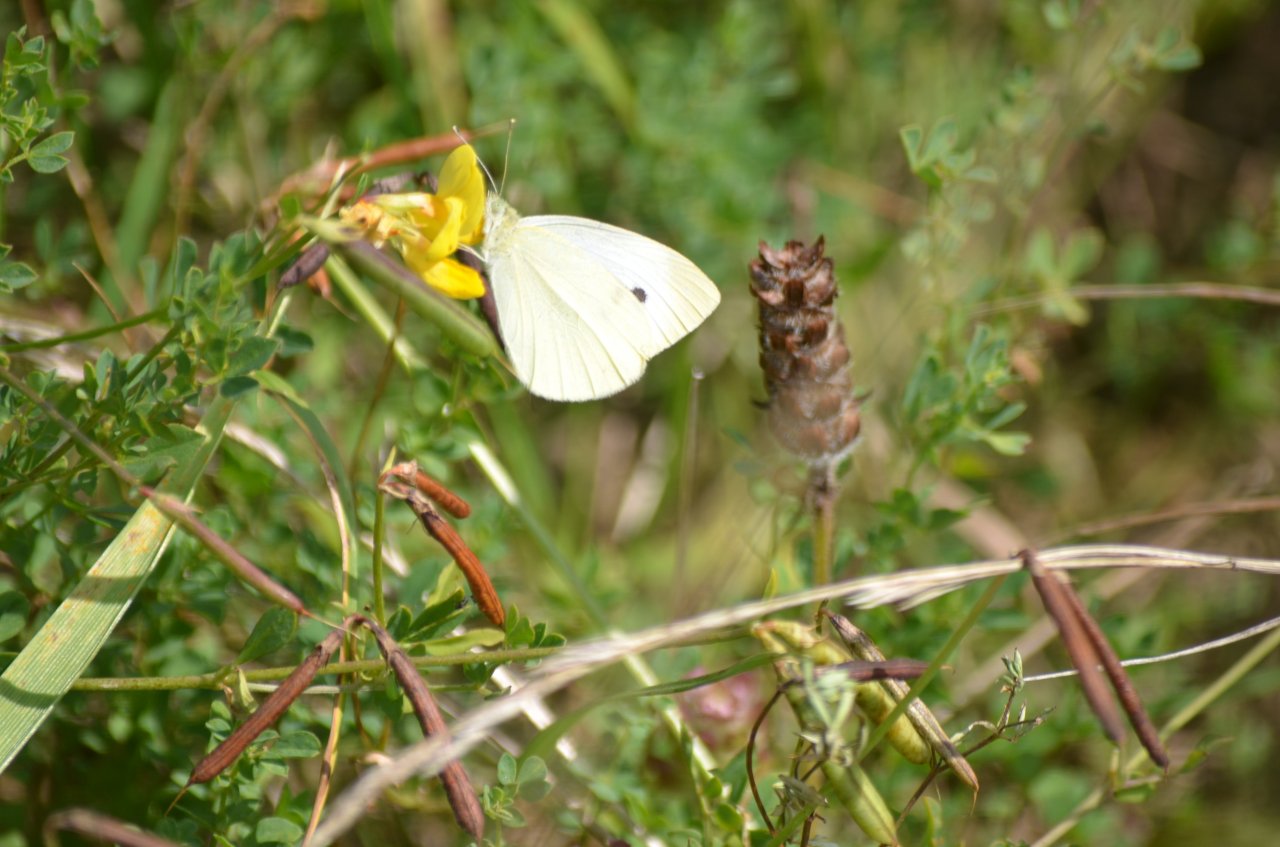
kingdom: Animalia
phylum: Arthropoda
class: Insecta
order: Lepidoptera
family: Pieridae
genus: Pieris
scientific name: Pieris rapae
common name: Cabbage White
